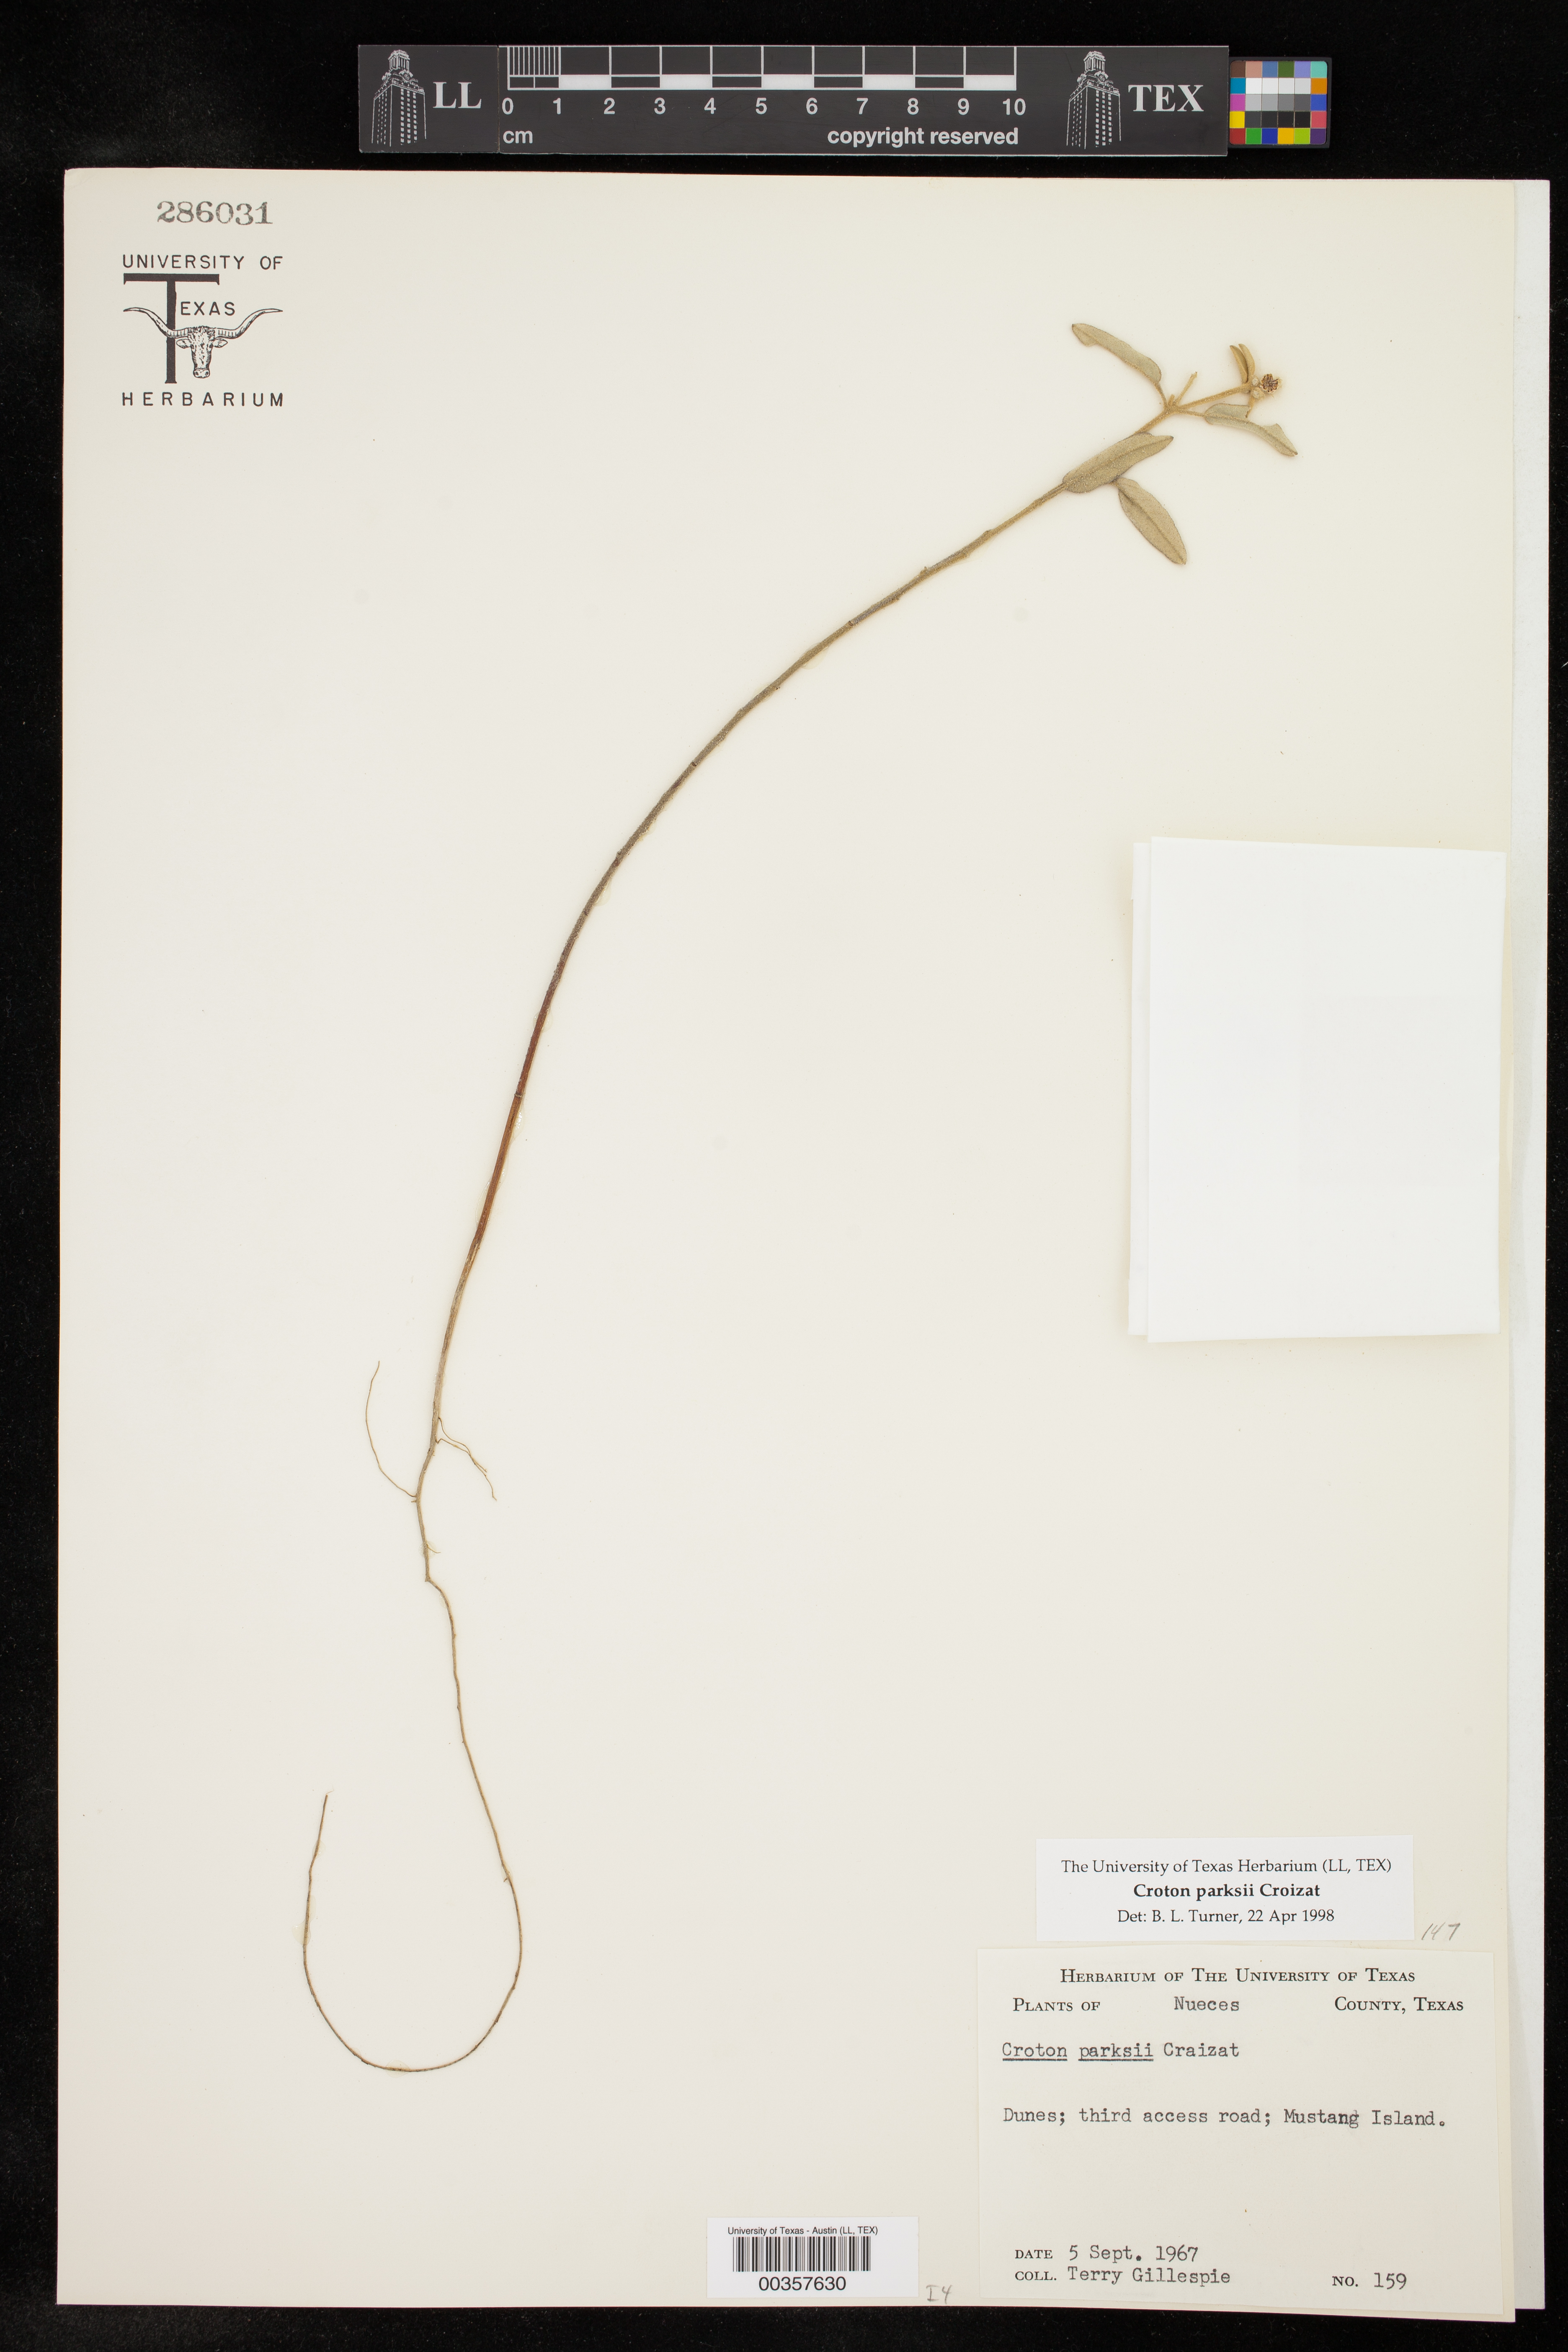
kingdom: Plantae
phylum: Tracheophyta
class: Magnoliopsida
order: Malpighiales
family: Euphorbiaceae
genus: Croton
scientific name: Croton parksii
